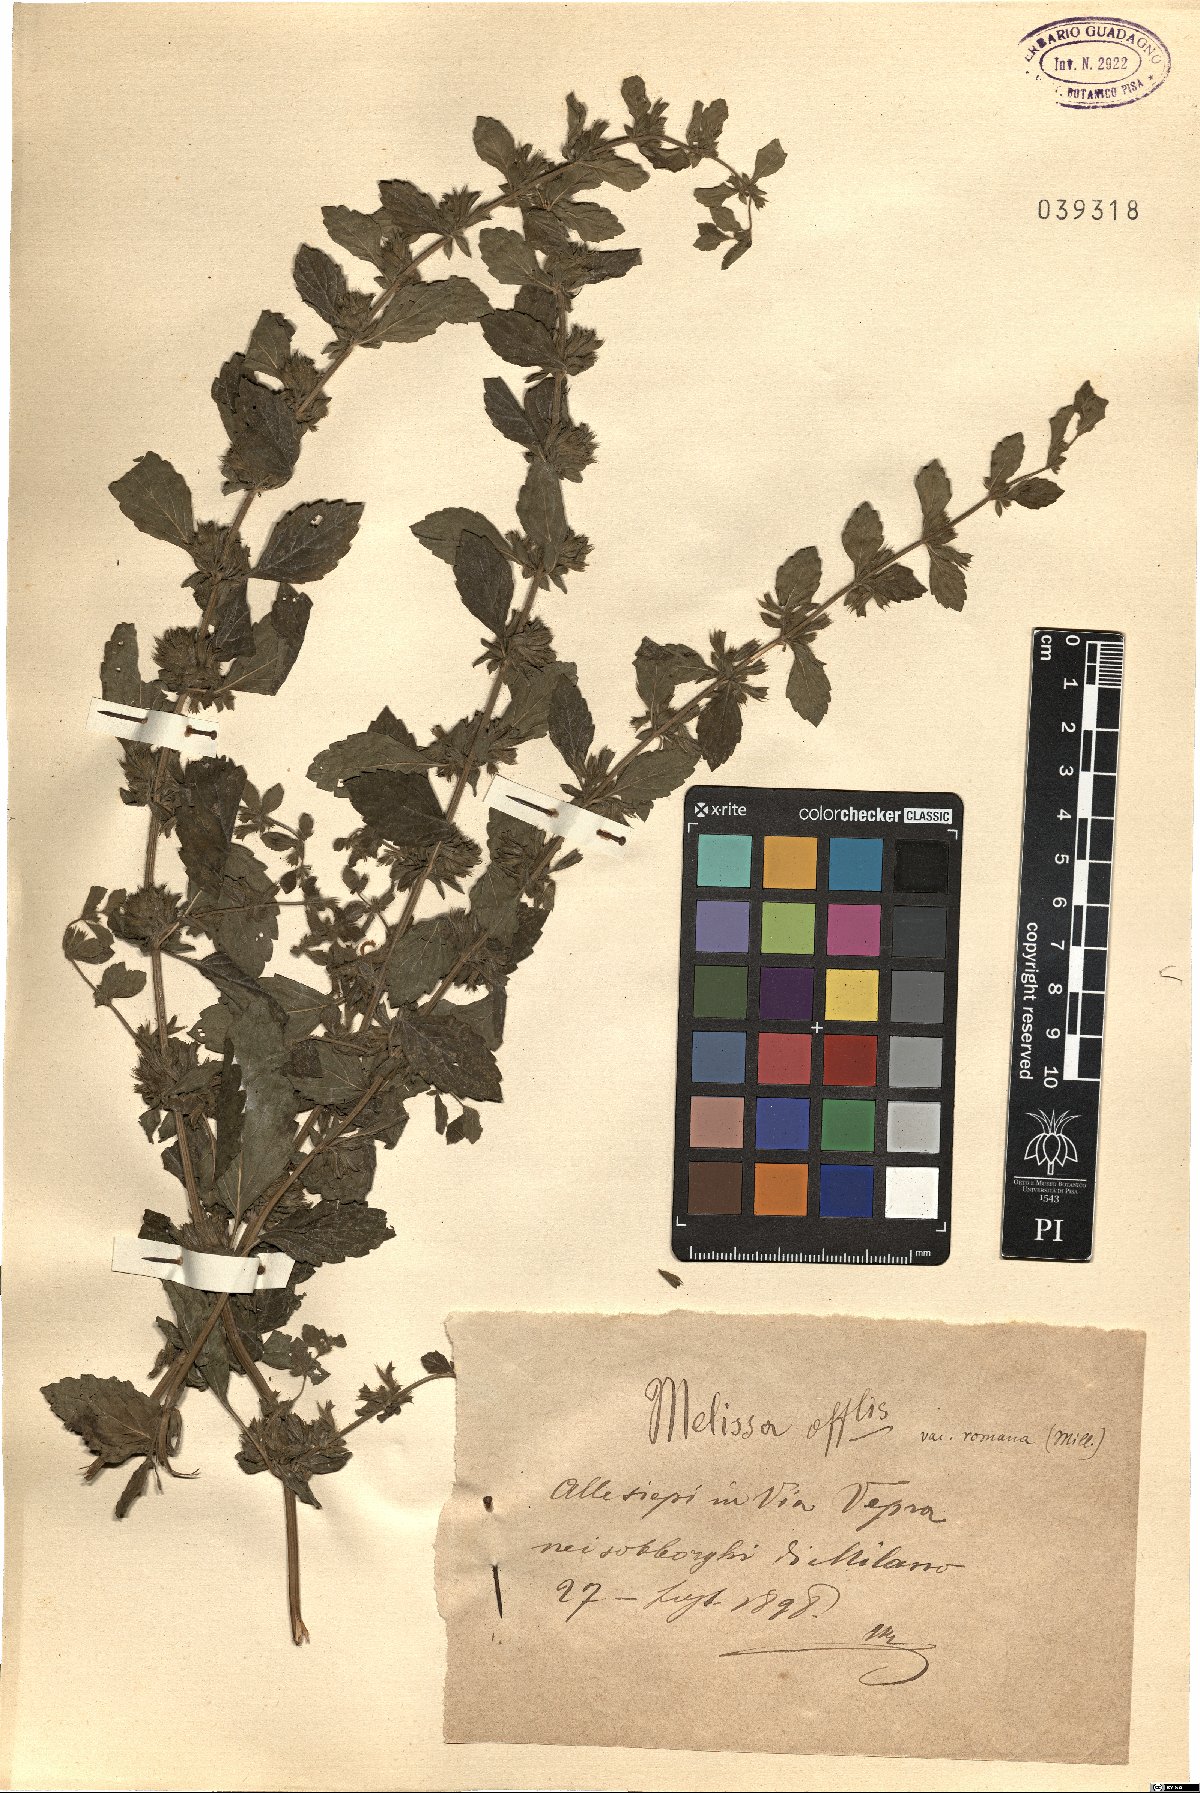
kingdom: Plantae
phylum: Tracheophyta
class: Magnoliopsida
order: Lamiales
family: Lamiaceae
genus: Melissa
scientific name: Melissa officinalis
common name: Balm
